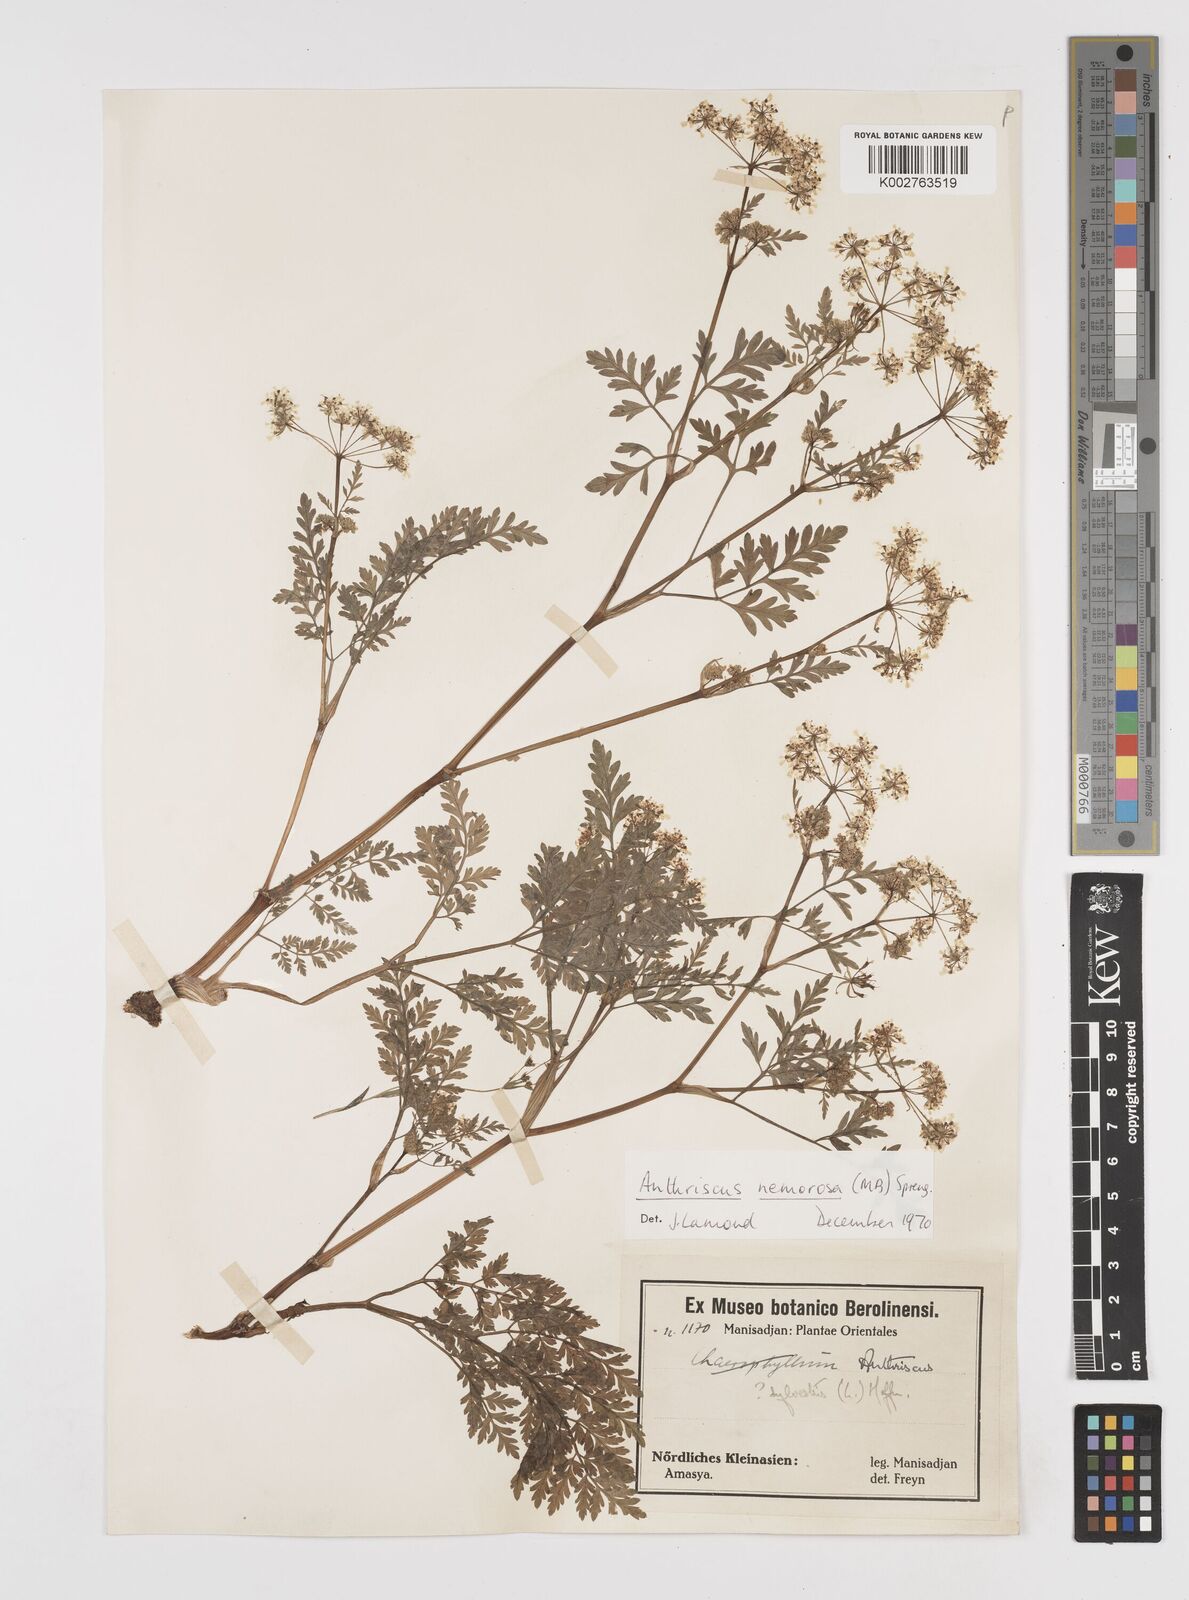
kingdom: Plantae
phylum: Tracheophyta
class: Magnoliopsida
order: Apiales
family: Apiaceae
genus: Anthriscus
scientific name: Anthriscus sylvestris
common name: Cow parsley
